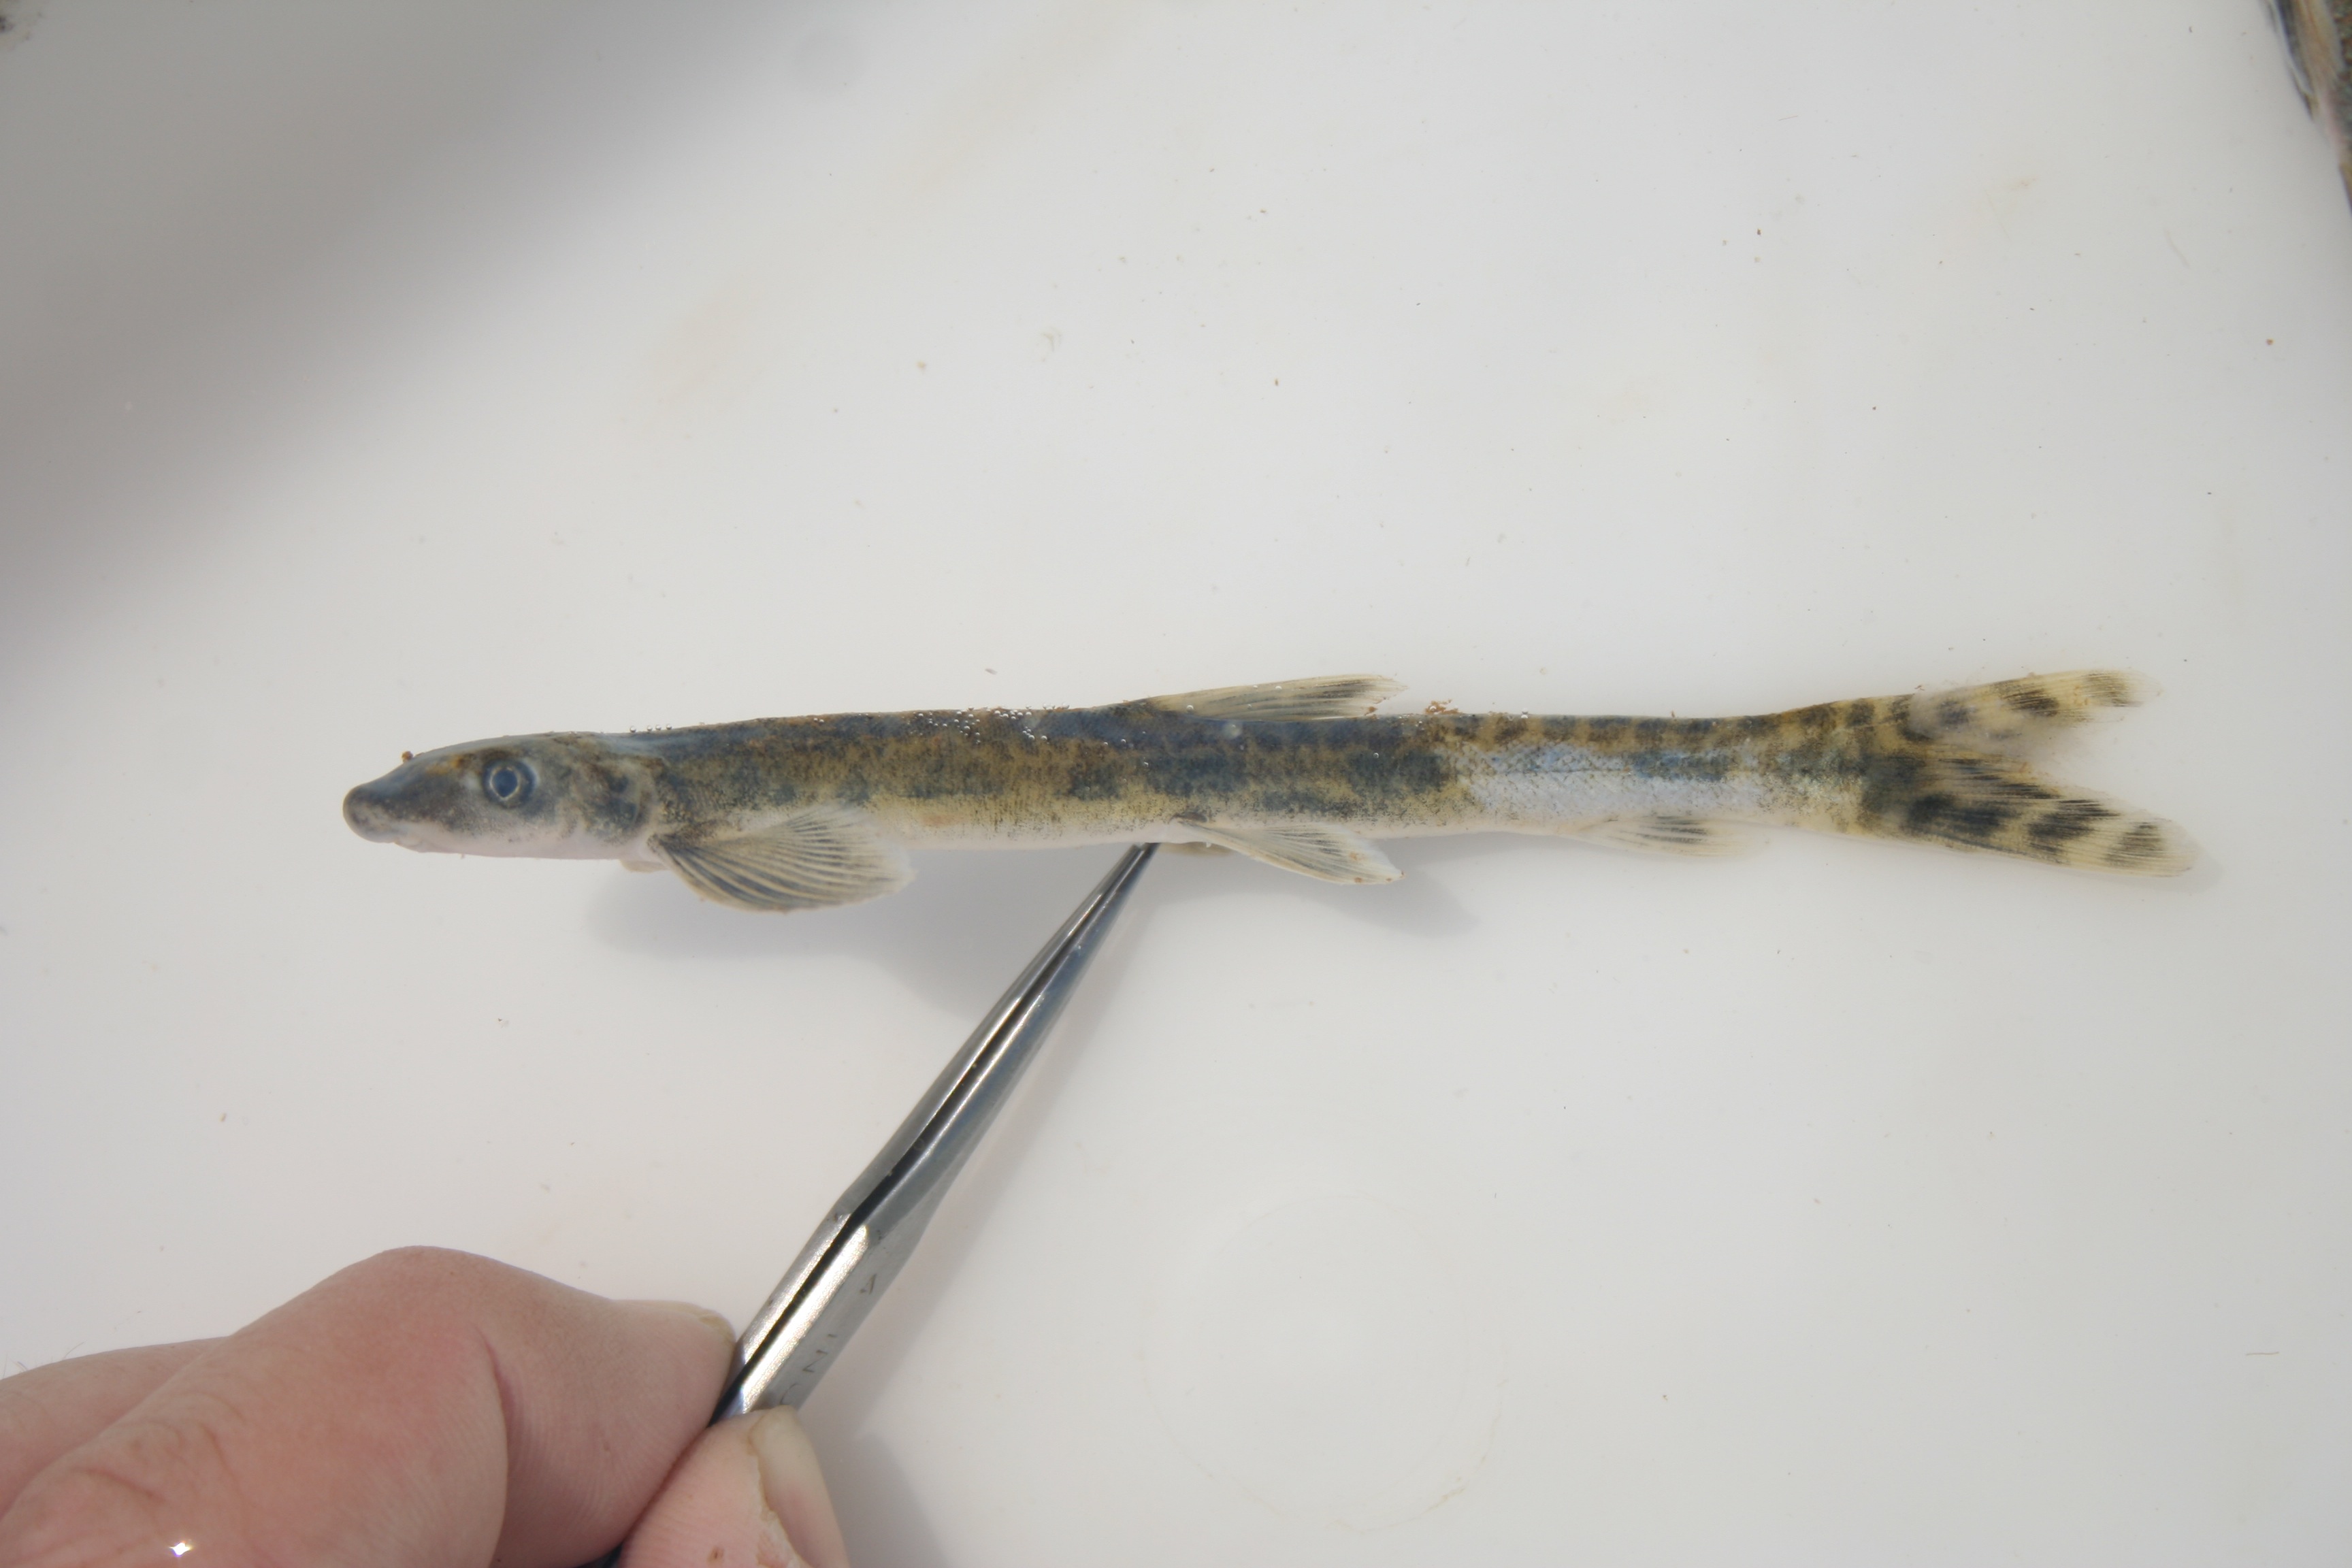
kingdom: Animalia
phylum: Chordata
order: Gonorynchiformes
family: Kneriidae
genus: Parakneria
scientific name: Parakneria marmorata
